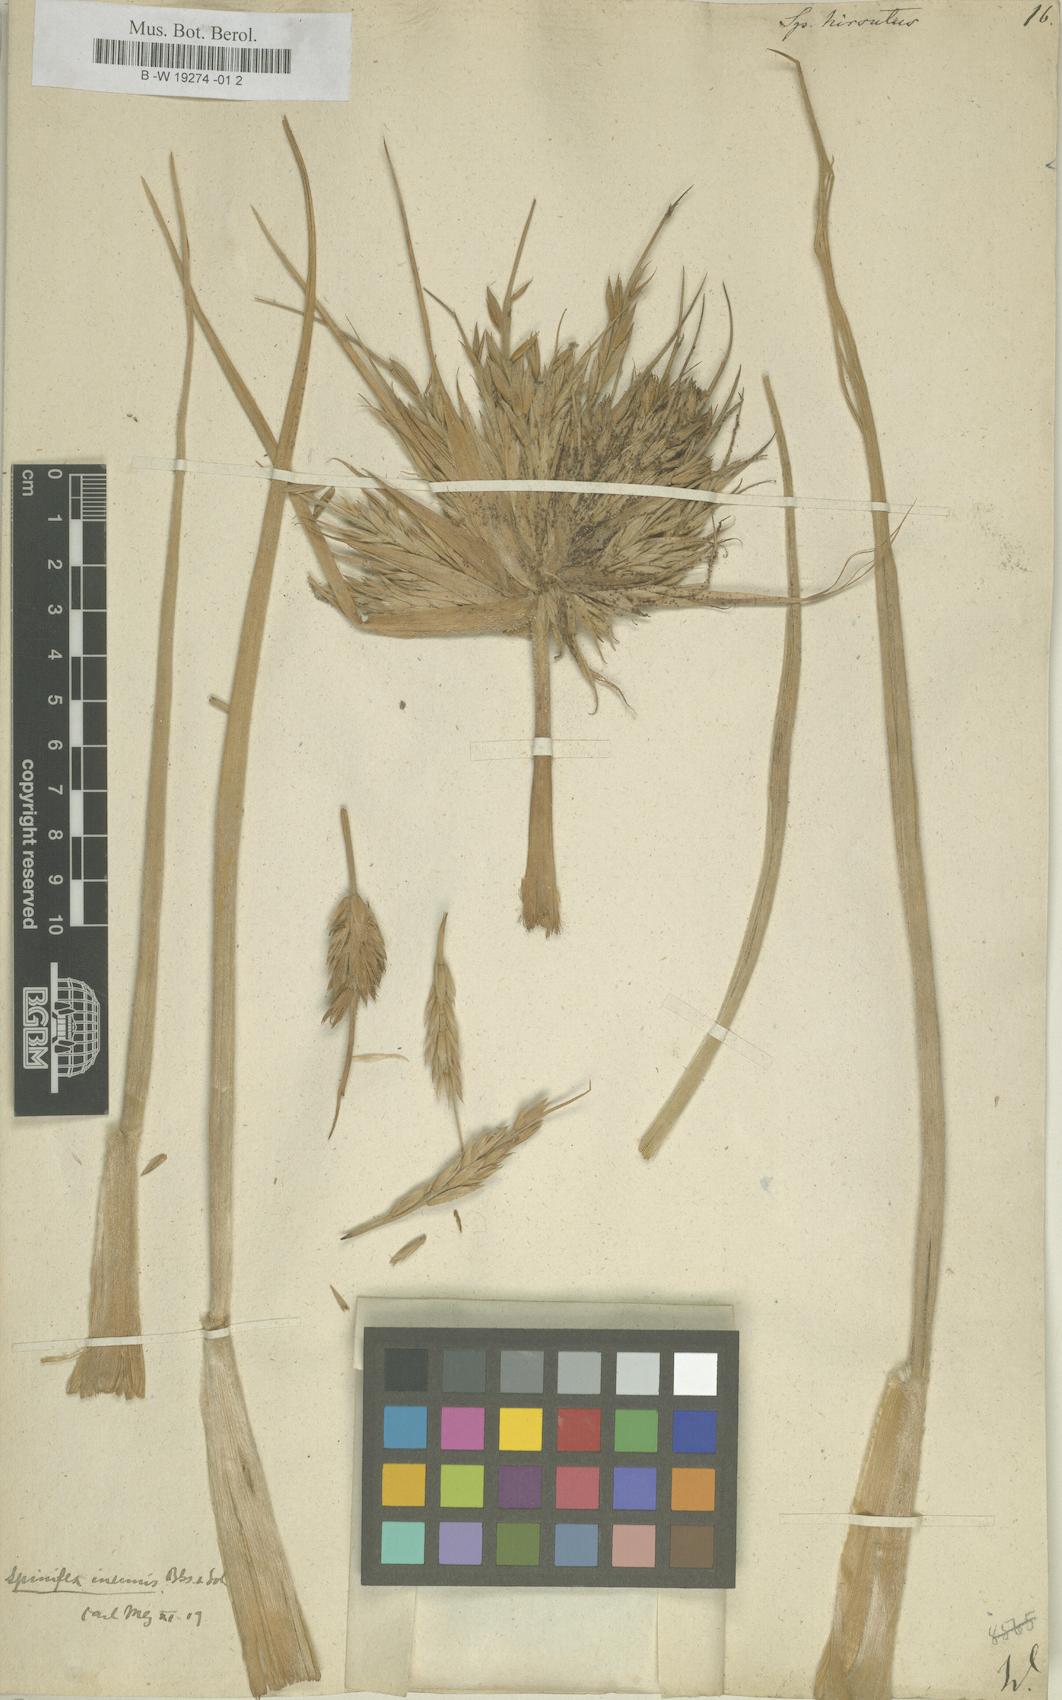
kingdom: Plantae
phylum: Tracheophyta
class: Liliopsida
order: Poales
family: Poaceae
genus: Spinifex
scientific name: Spinifex hirsutus
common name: Hairy spinifex
